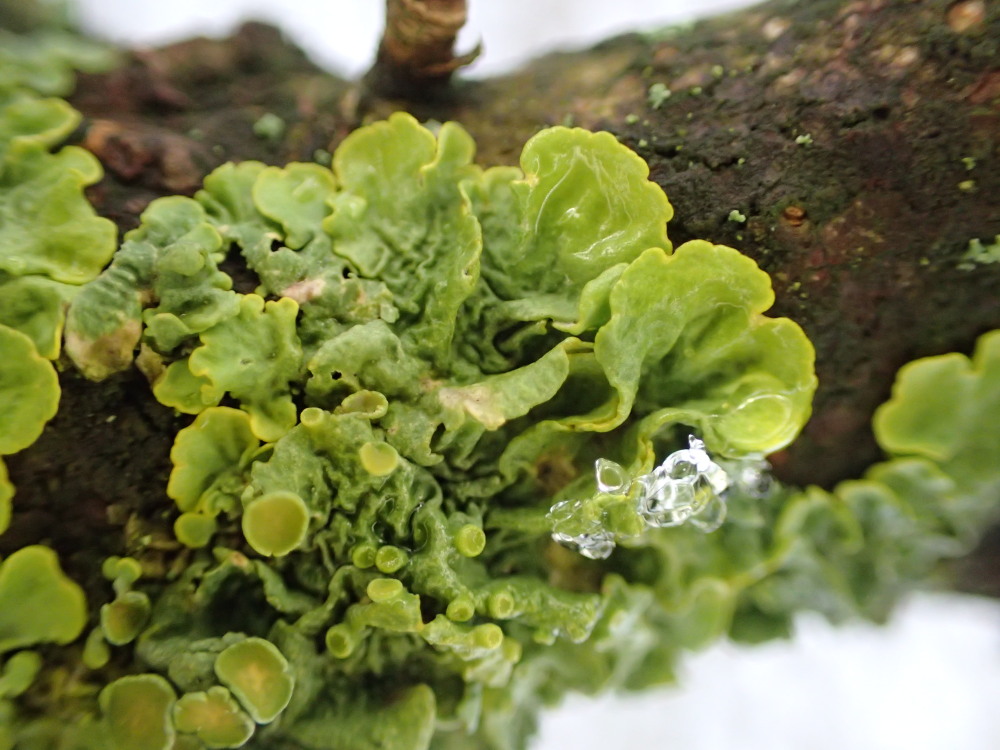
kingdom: Fungi
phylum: Ascomycota
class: Lecanoromycetes
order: Teloschistales
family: Teloschistaceae
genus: Xanthoria
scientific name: Xanthoria parietina
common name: almindelig væggelav
